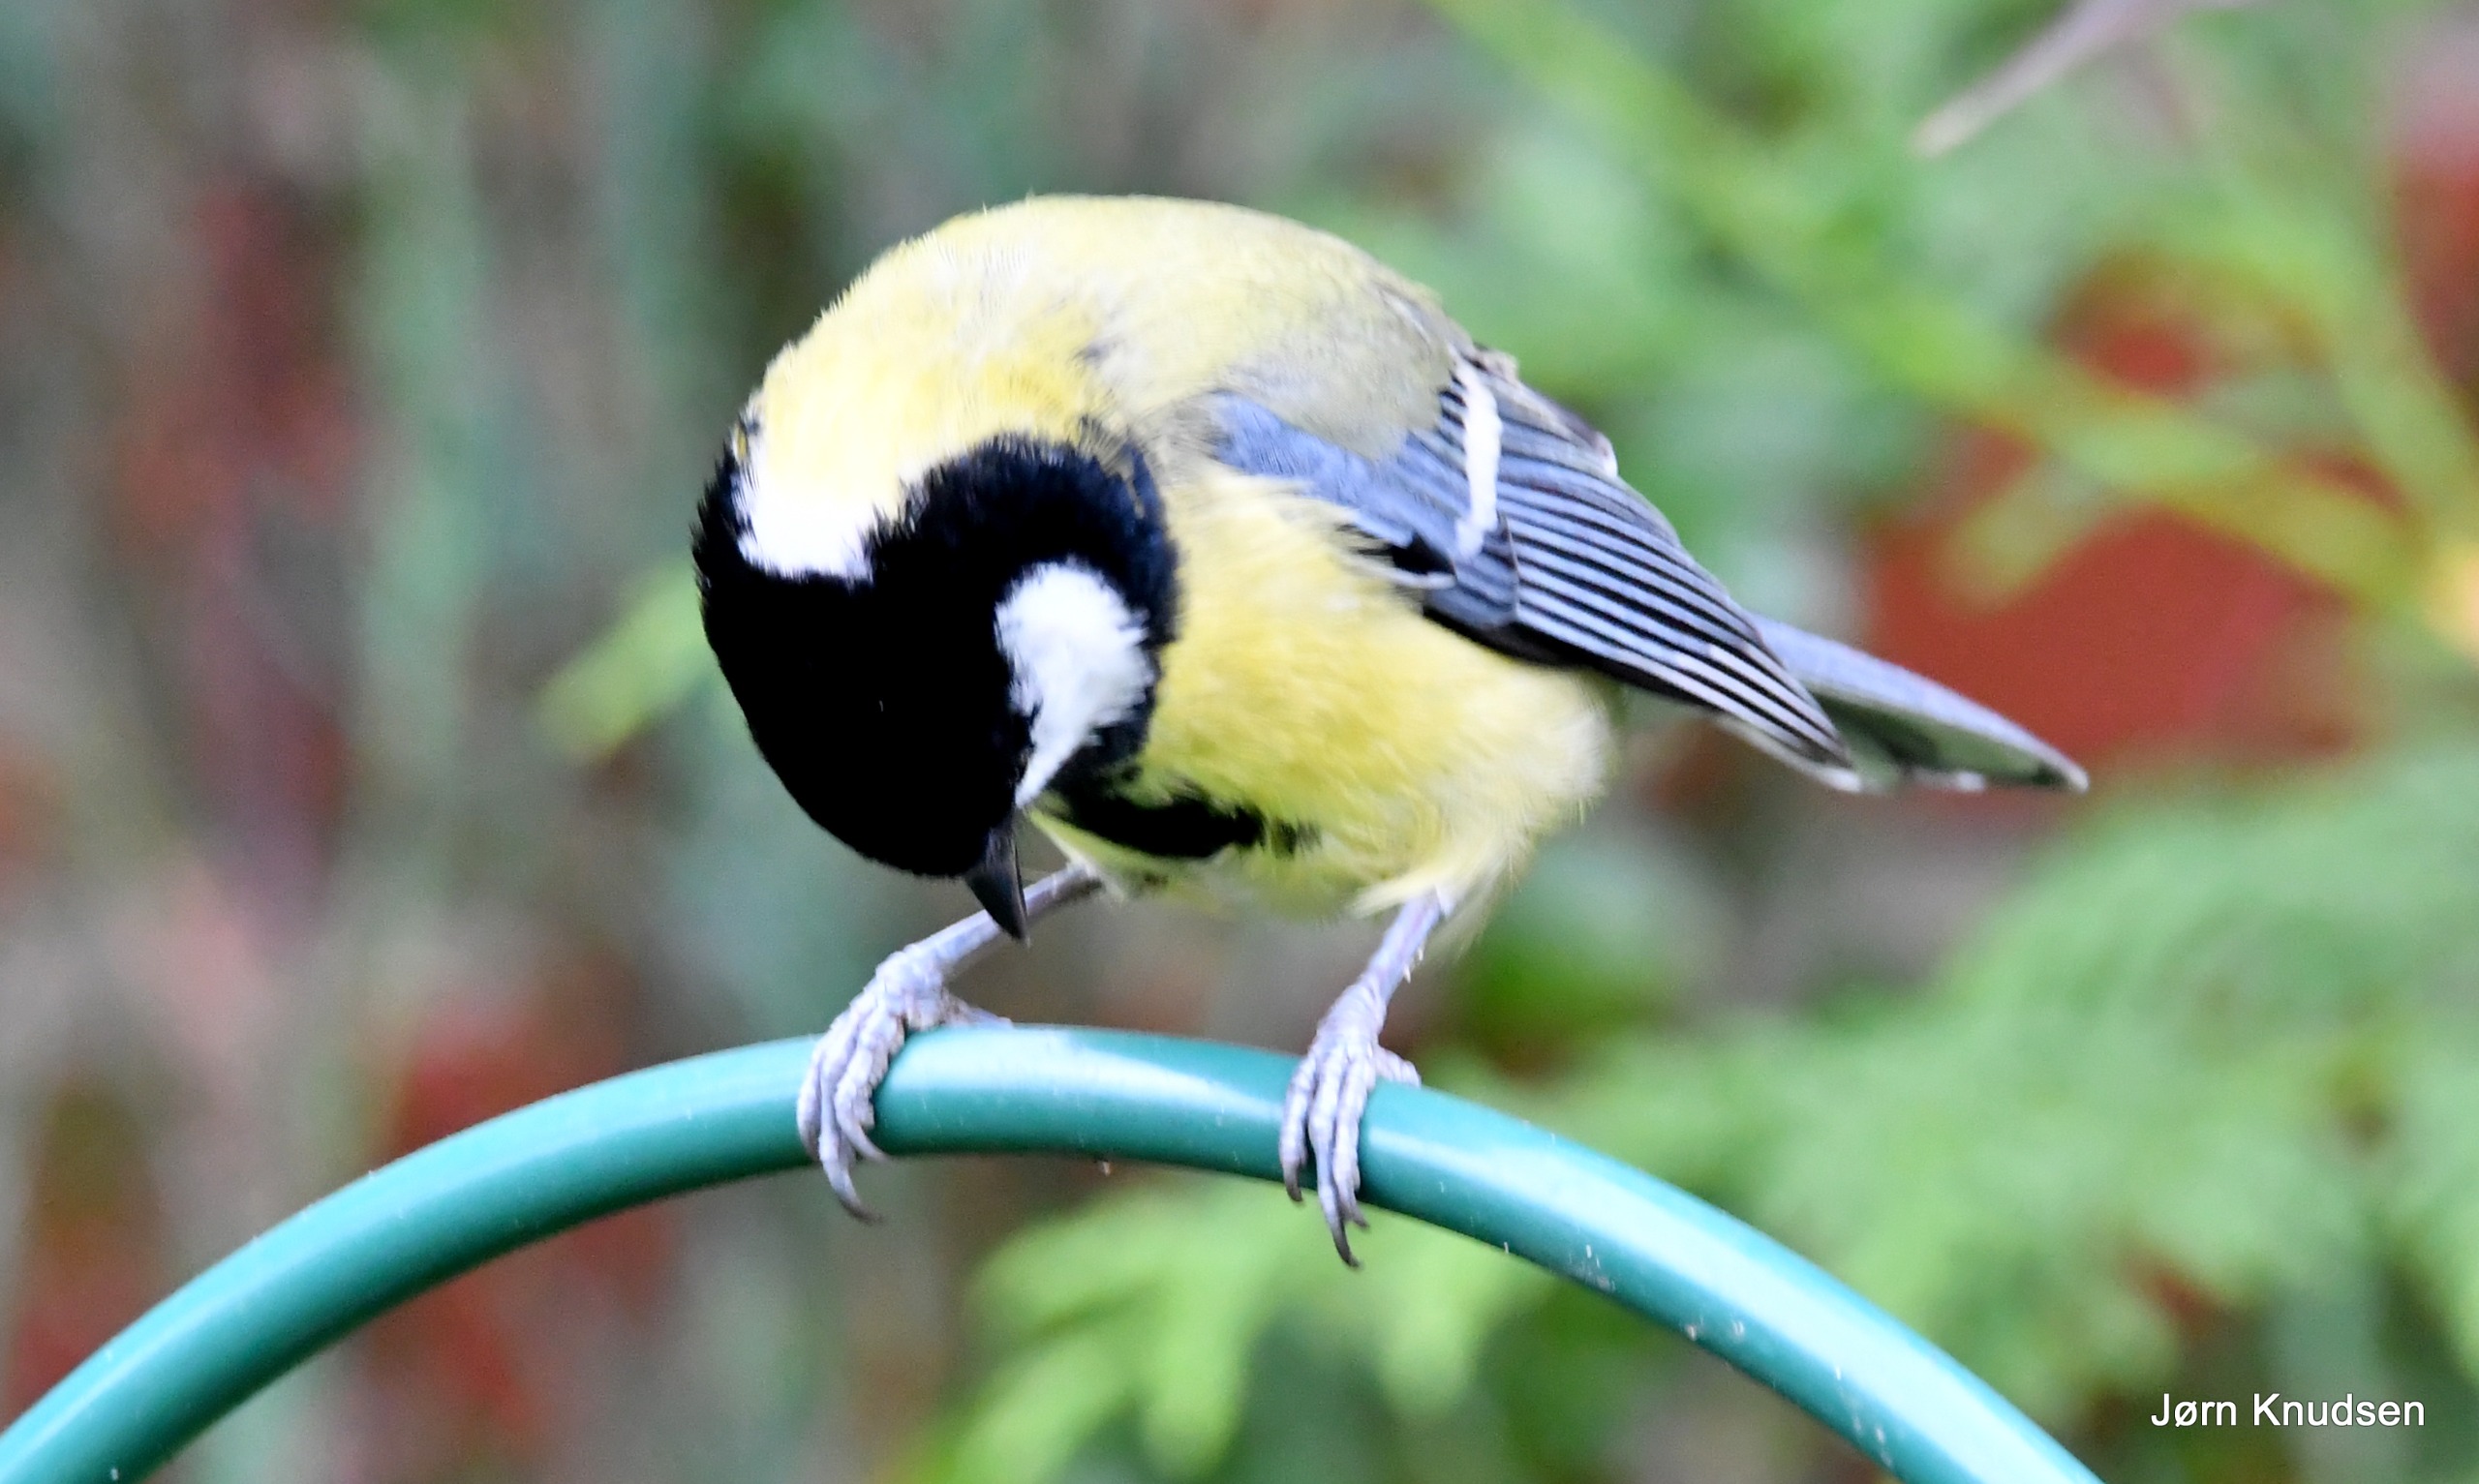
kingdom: Animalia
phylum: Chordata
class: Aves
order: Passeriformes
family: Paridae
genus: Parus
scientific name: Parus major
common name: Musvit
